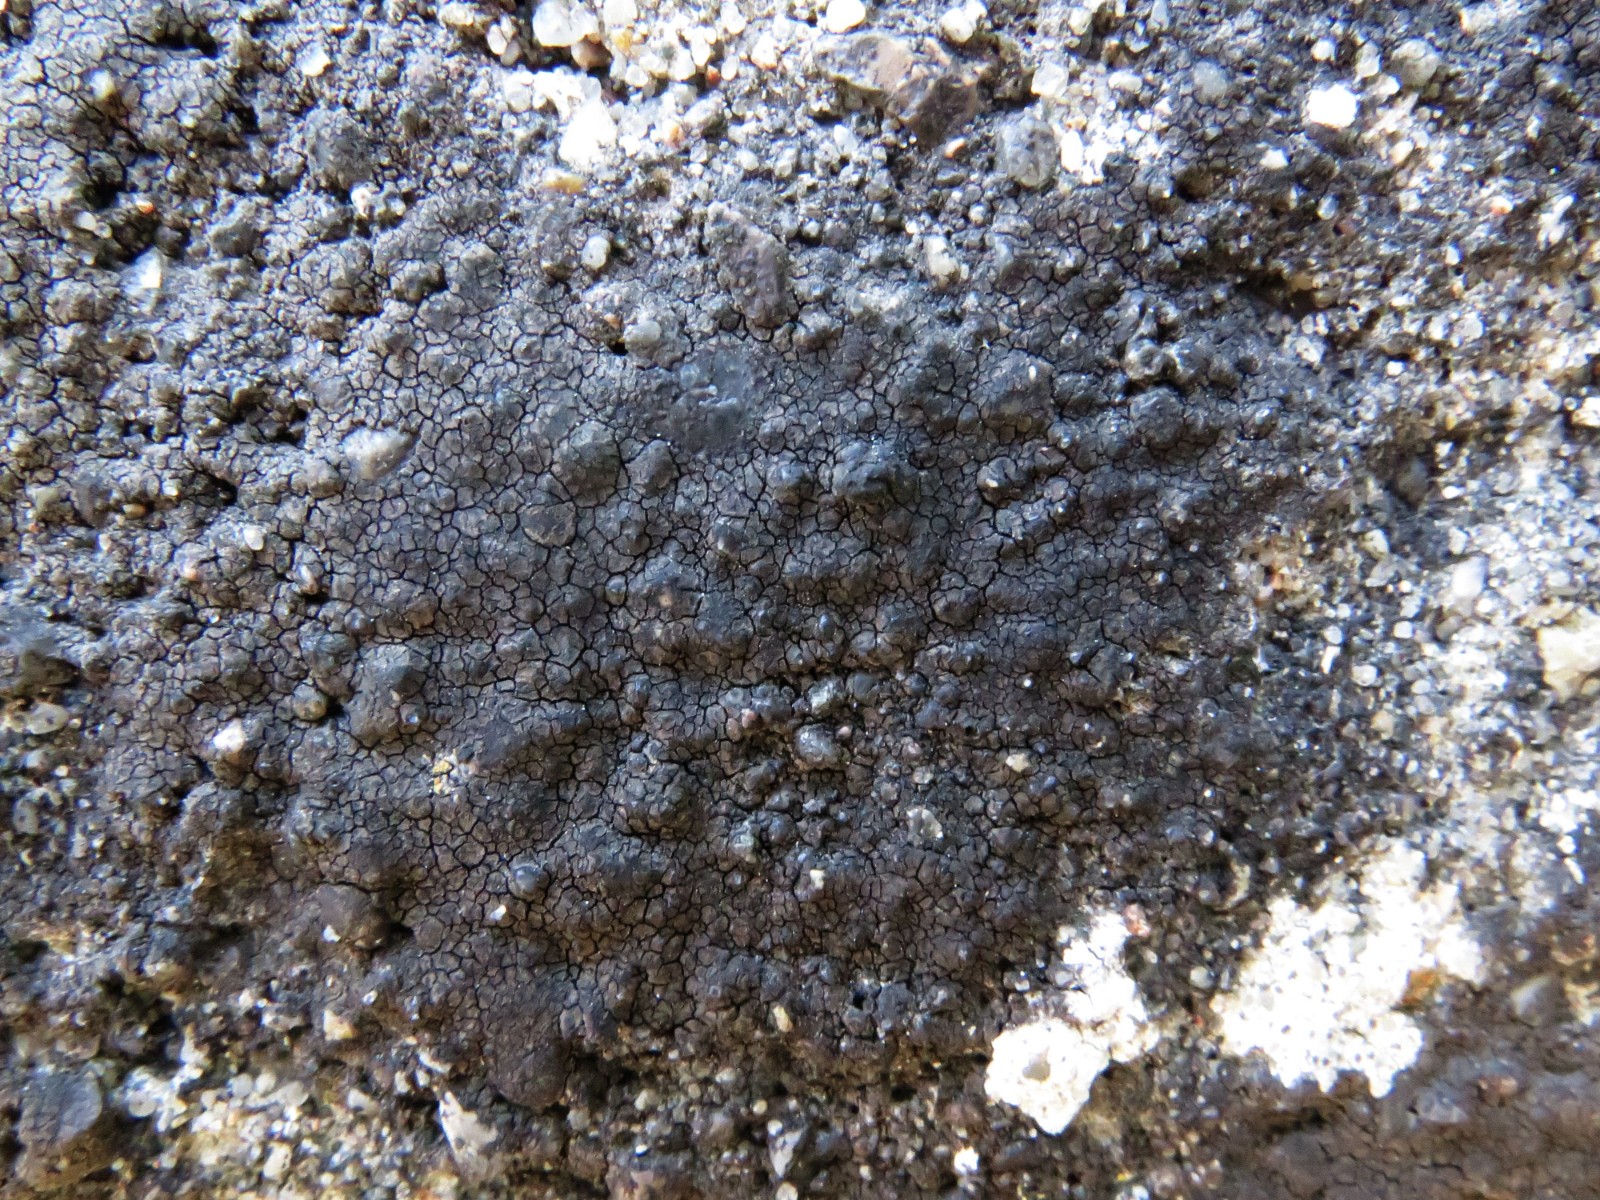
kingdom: Fungi
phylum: Ascomycota
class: Eurotiomycetes
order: Verrucariales
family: Verrucariaceae
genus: Verrucaria
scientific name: Verrucaria nigrescens
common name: sortbrun vortelav
